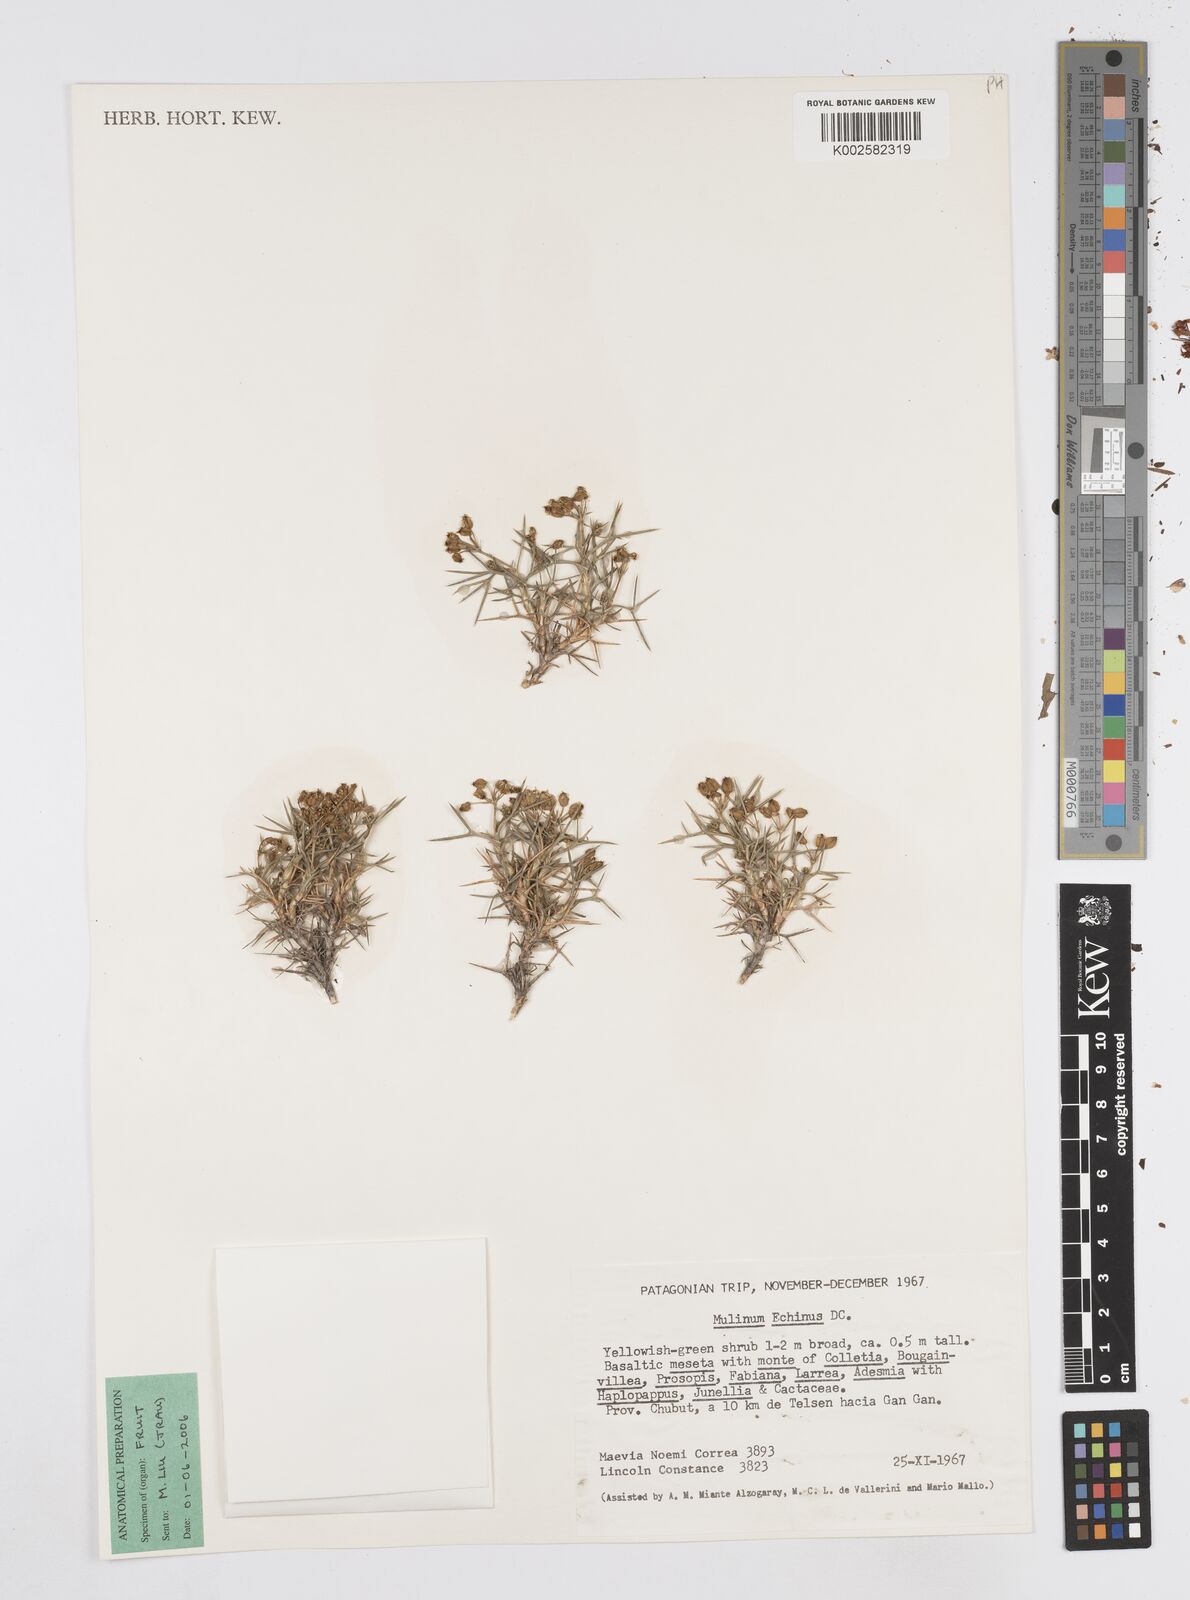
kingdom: Plantae
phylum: Tracheophyta
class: Magnoliopsida
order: Apiales
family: Apiaceae
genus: Azorella
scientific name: Azorella echinus
